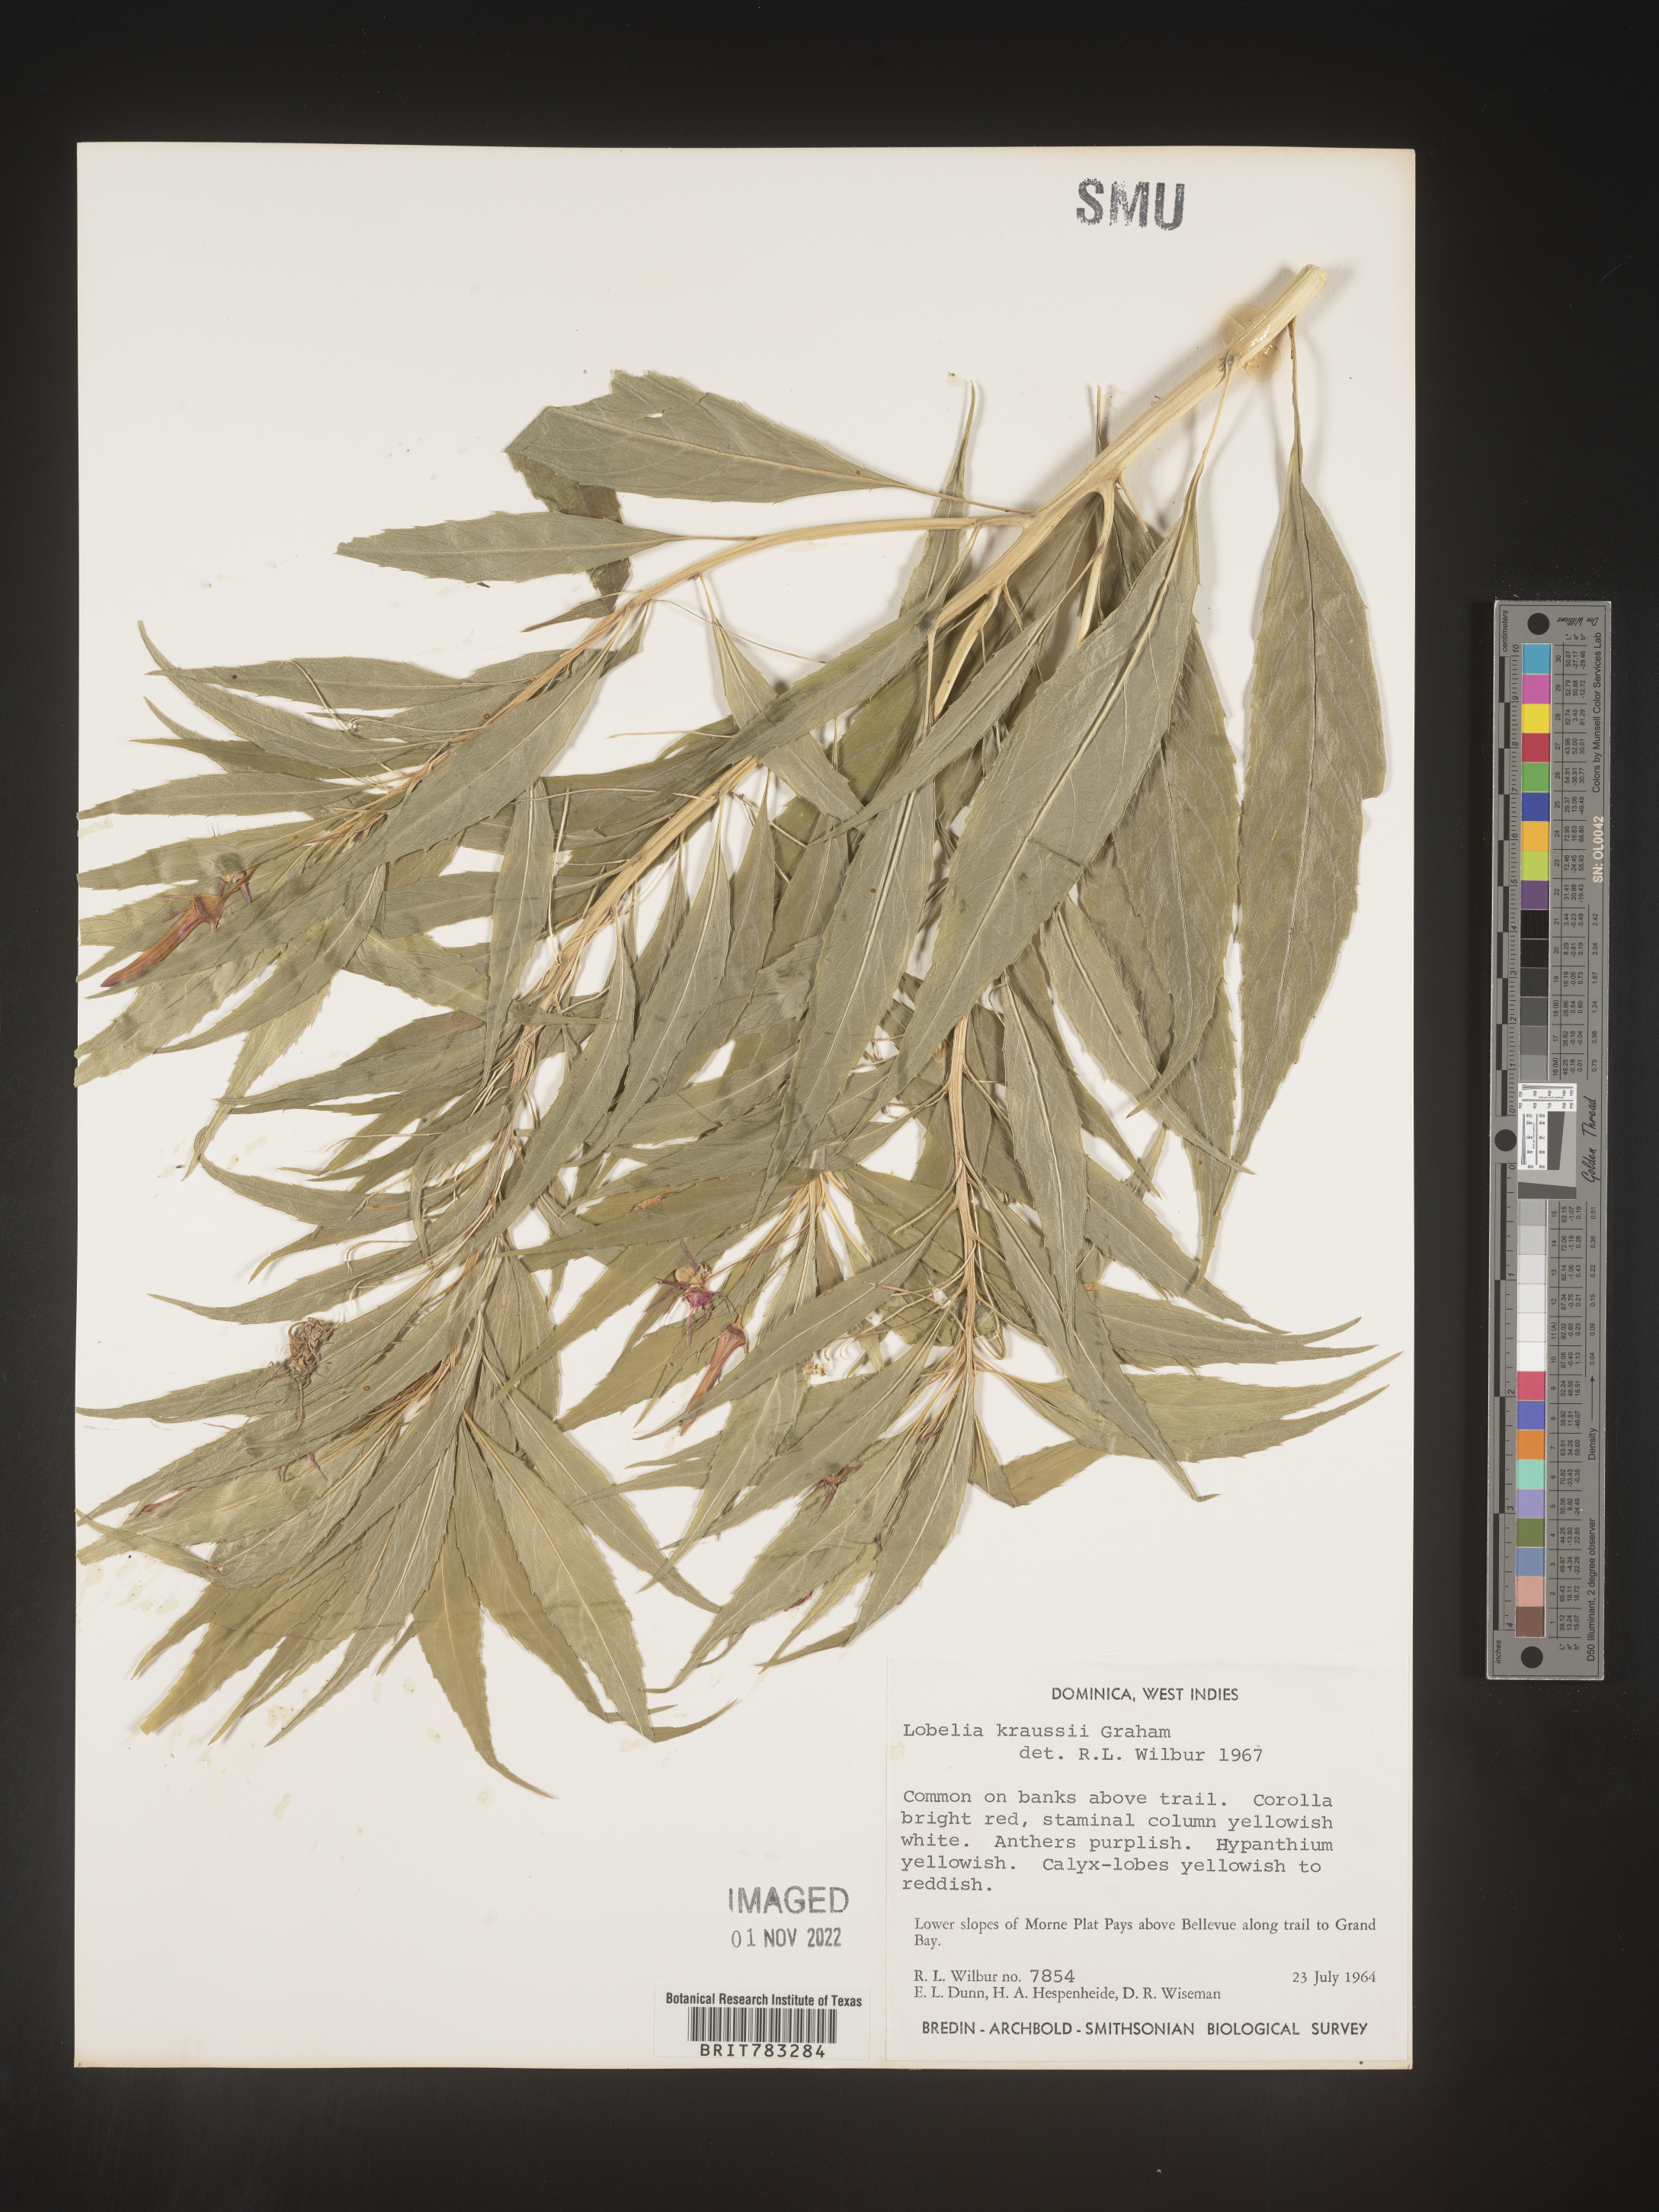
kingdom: Plantae
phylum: Tracheophyta
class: Magnoliopsida
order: Asterales
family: Campanulaceae
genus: Lobelia
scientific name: Lobelia
